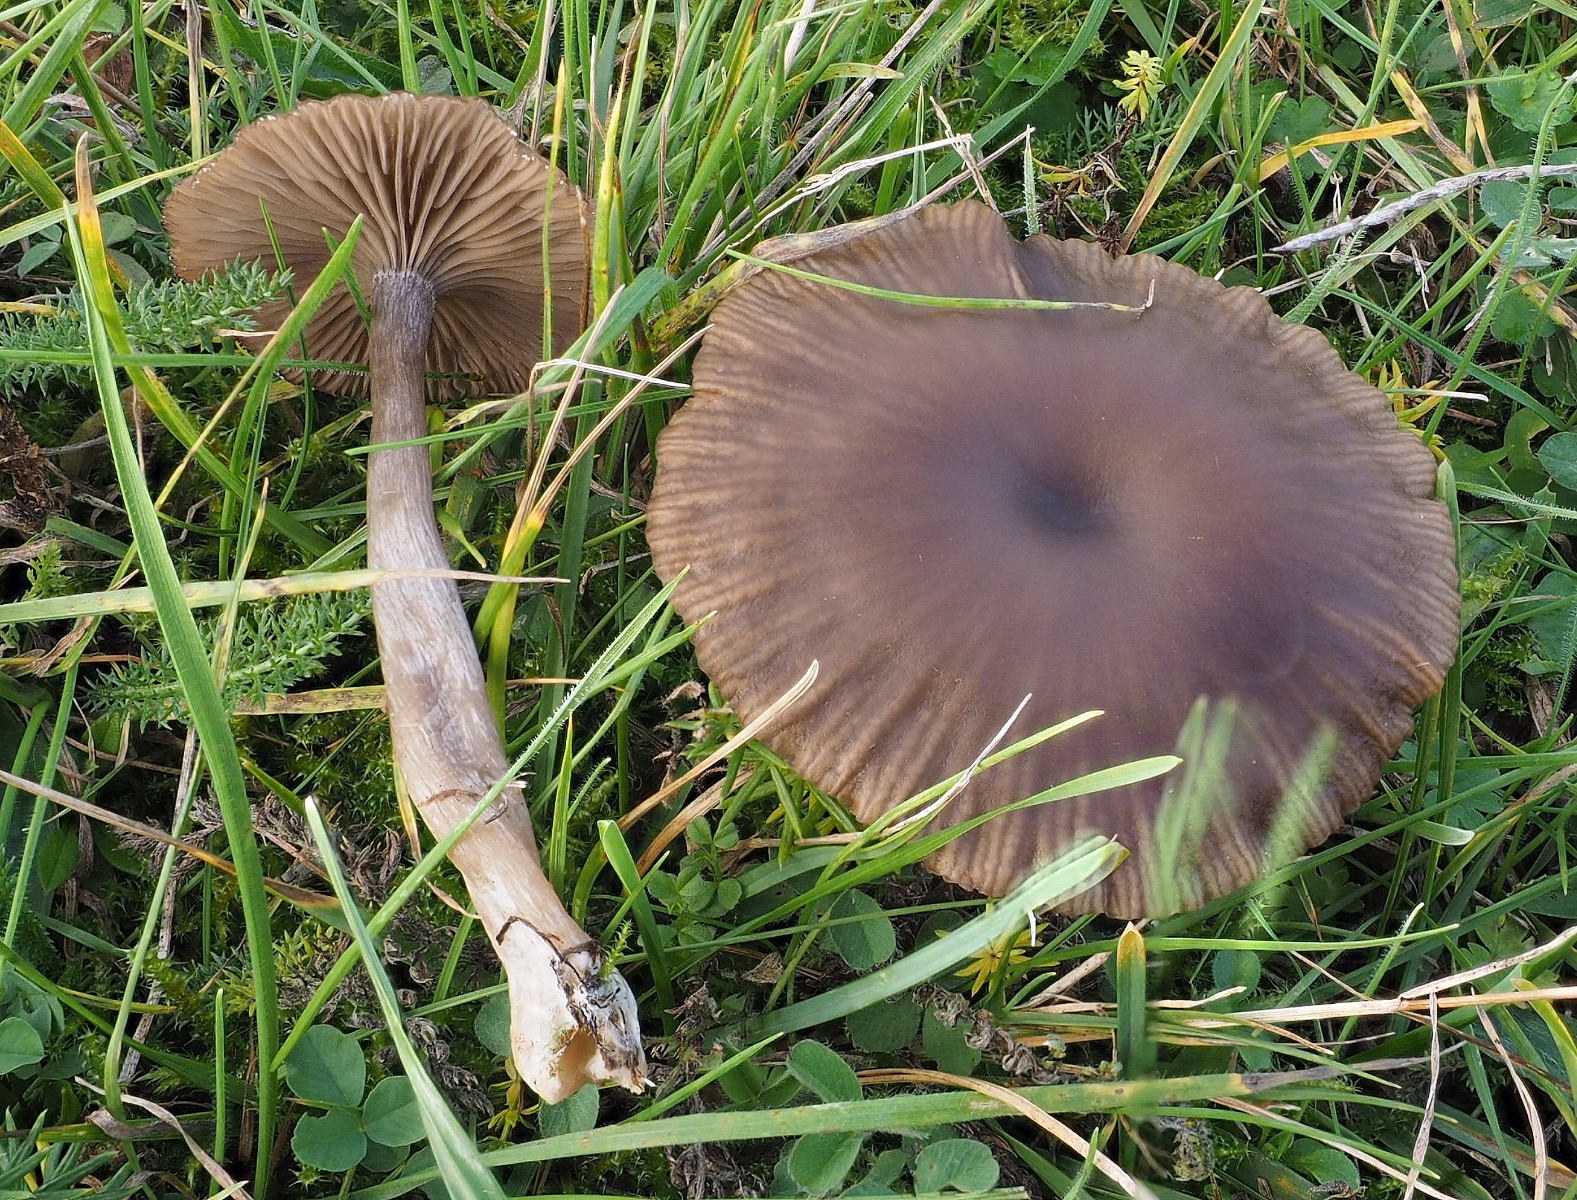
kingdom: Fungi
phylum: Basidiomycota
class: Agaricomycetes
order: Agaricales
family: Pseudoclitocybaceae
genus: Pseudoclitocybe
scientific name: Pseudoclitocybe expallens
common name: lille bægertragthat
